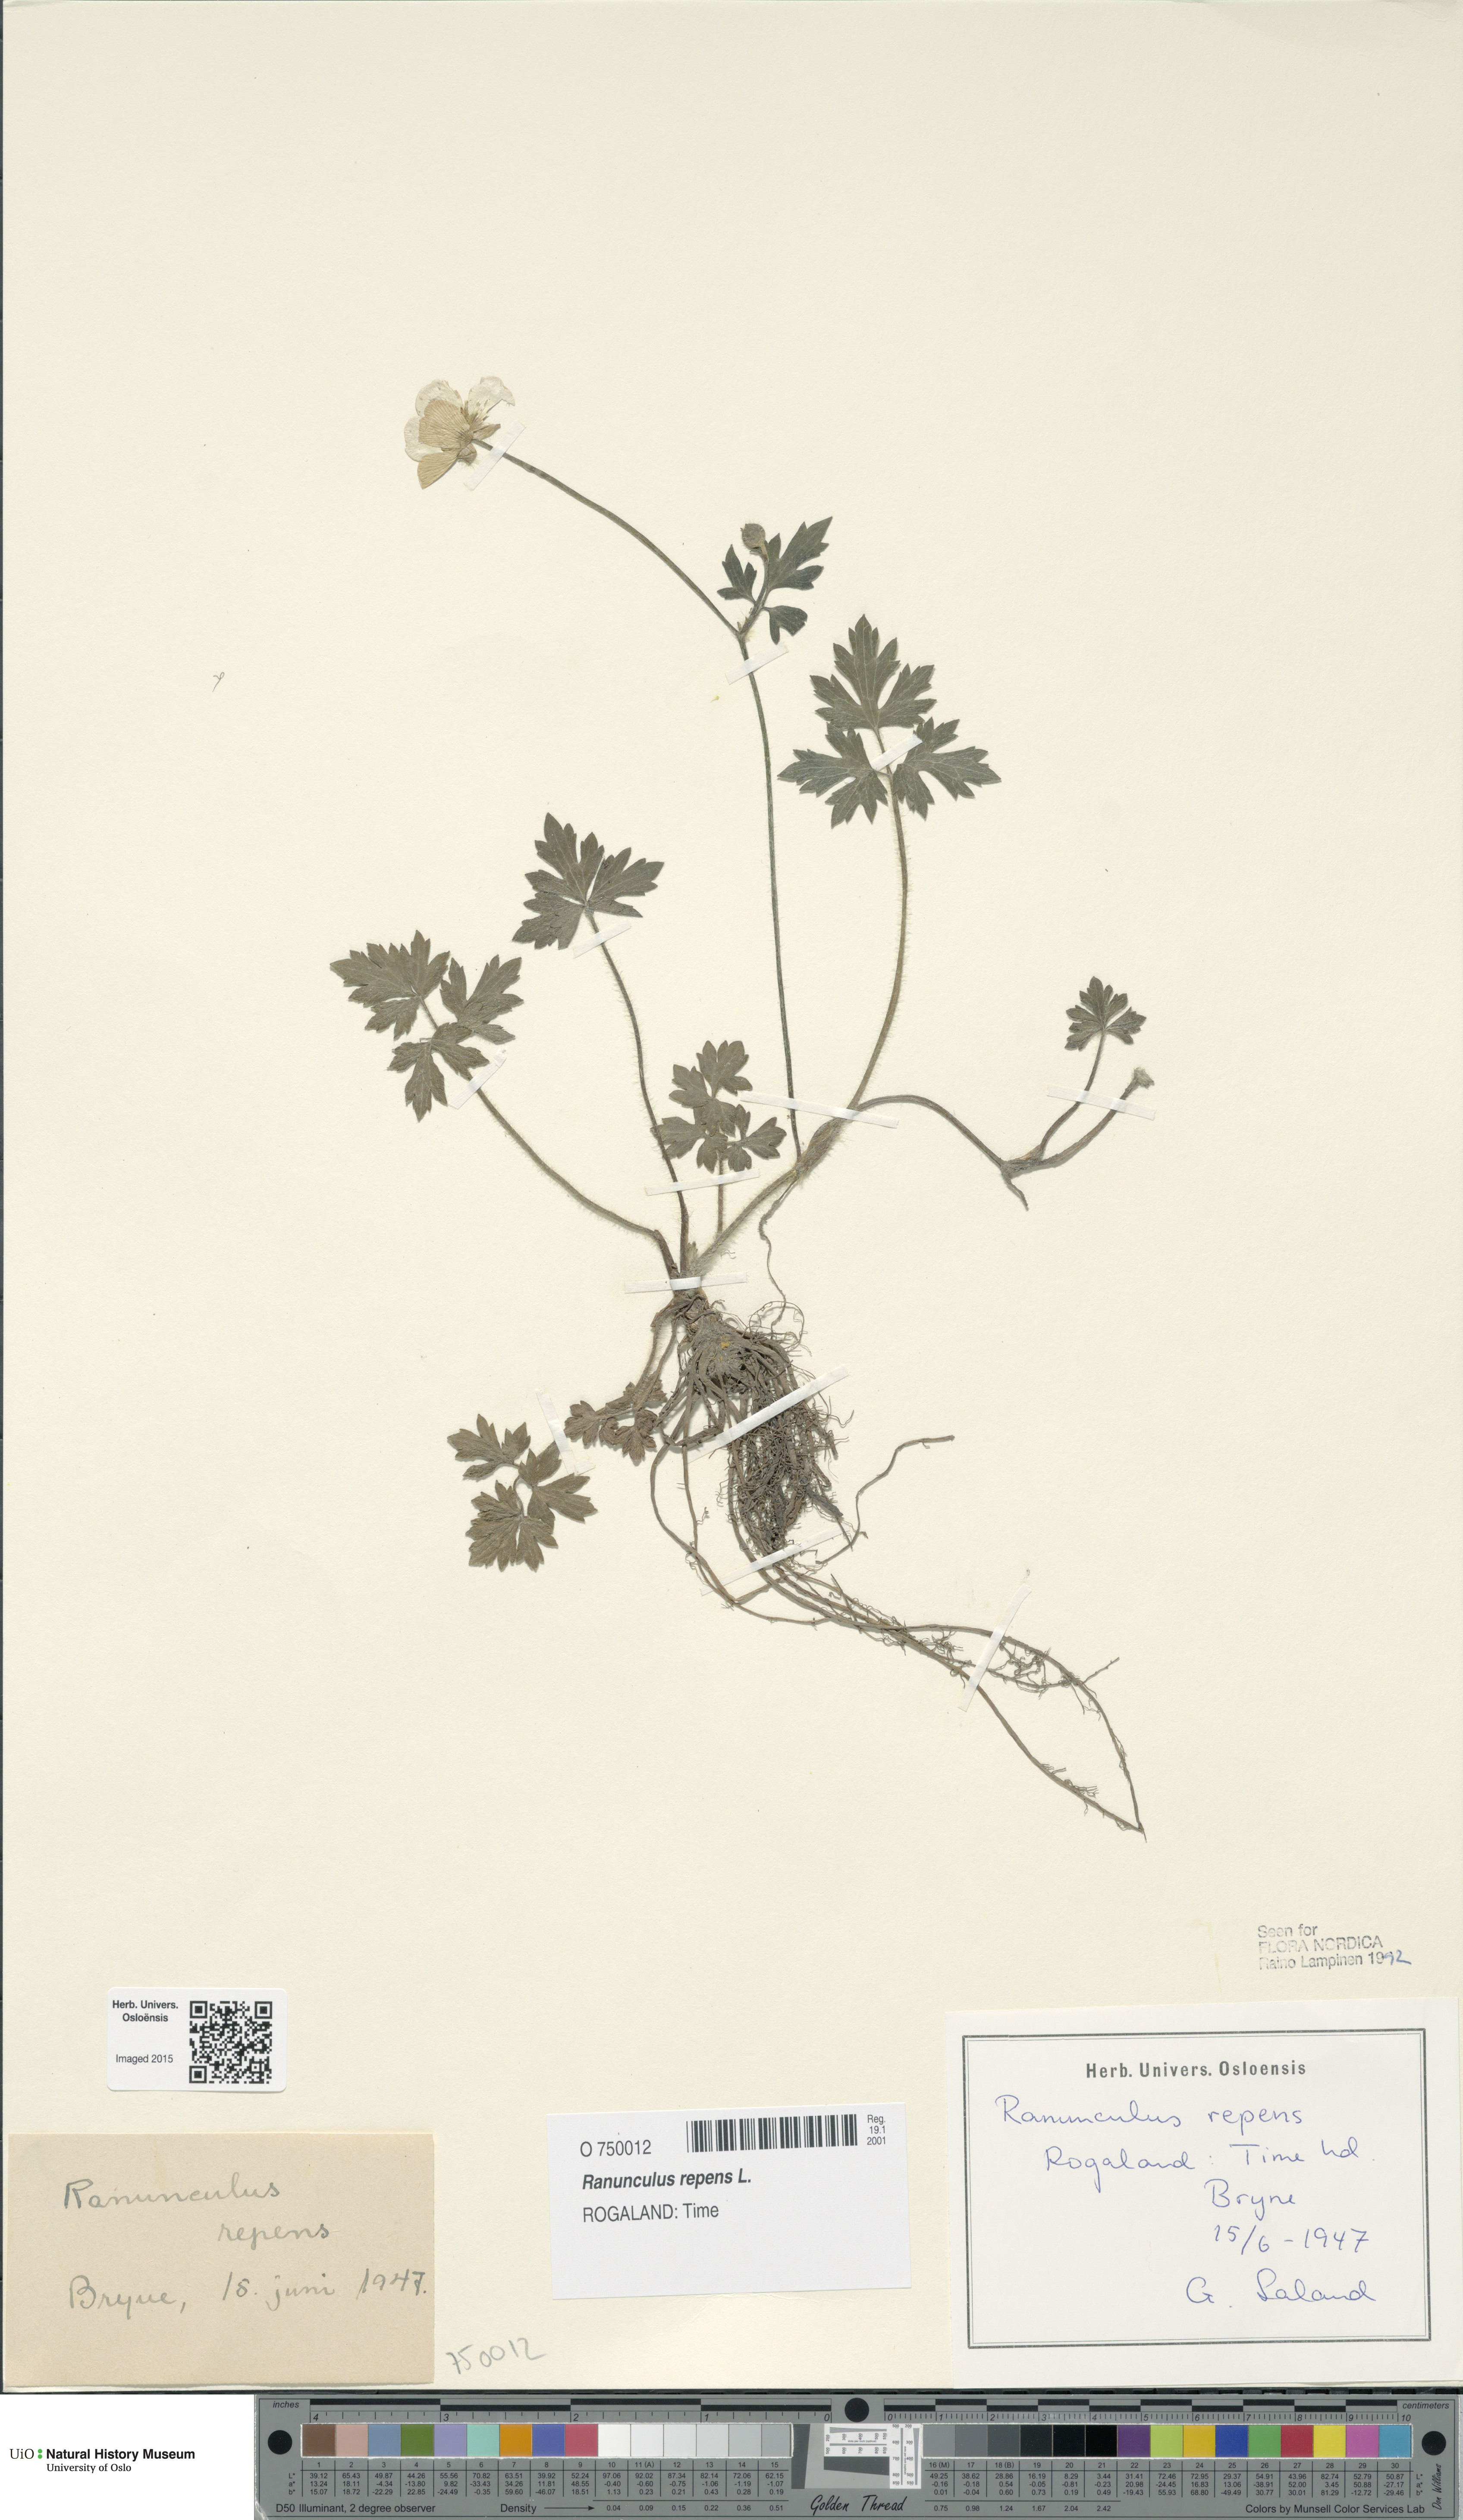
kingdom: Plantae
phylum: Tracheophyta
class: Magnoliopsida
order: Ranunculales
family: Ranunculaceae
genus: Ranunculus
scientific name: Ranunculus repens
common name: Creeping buttercup
